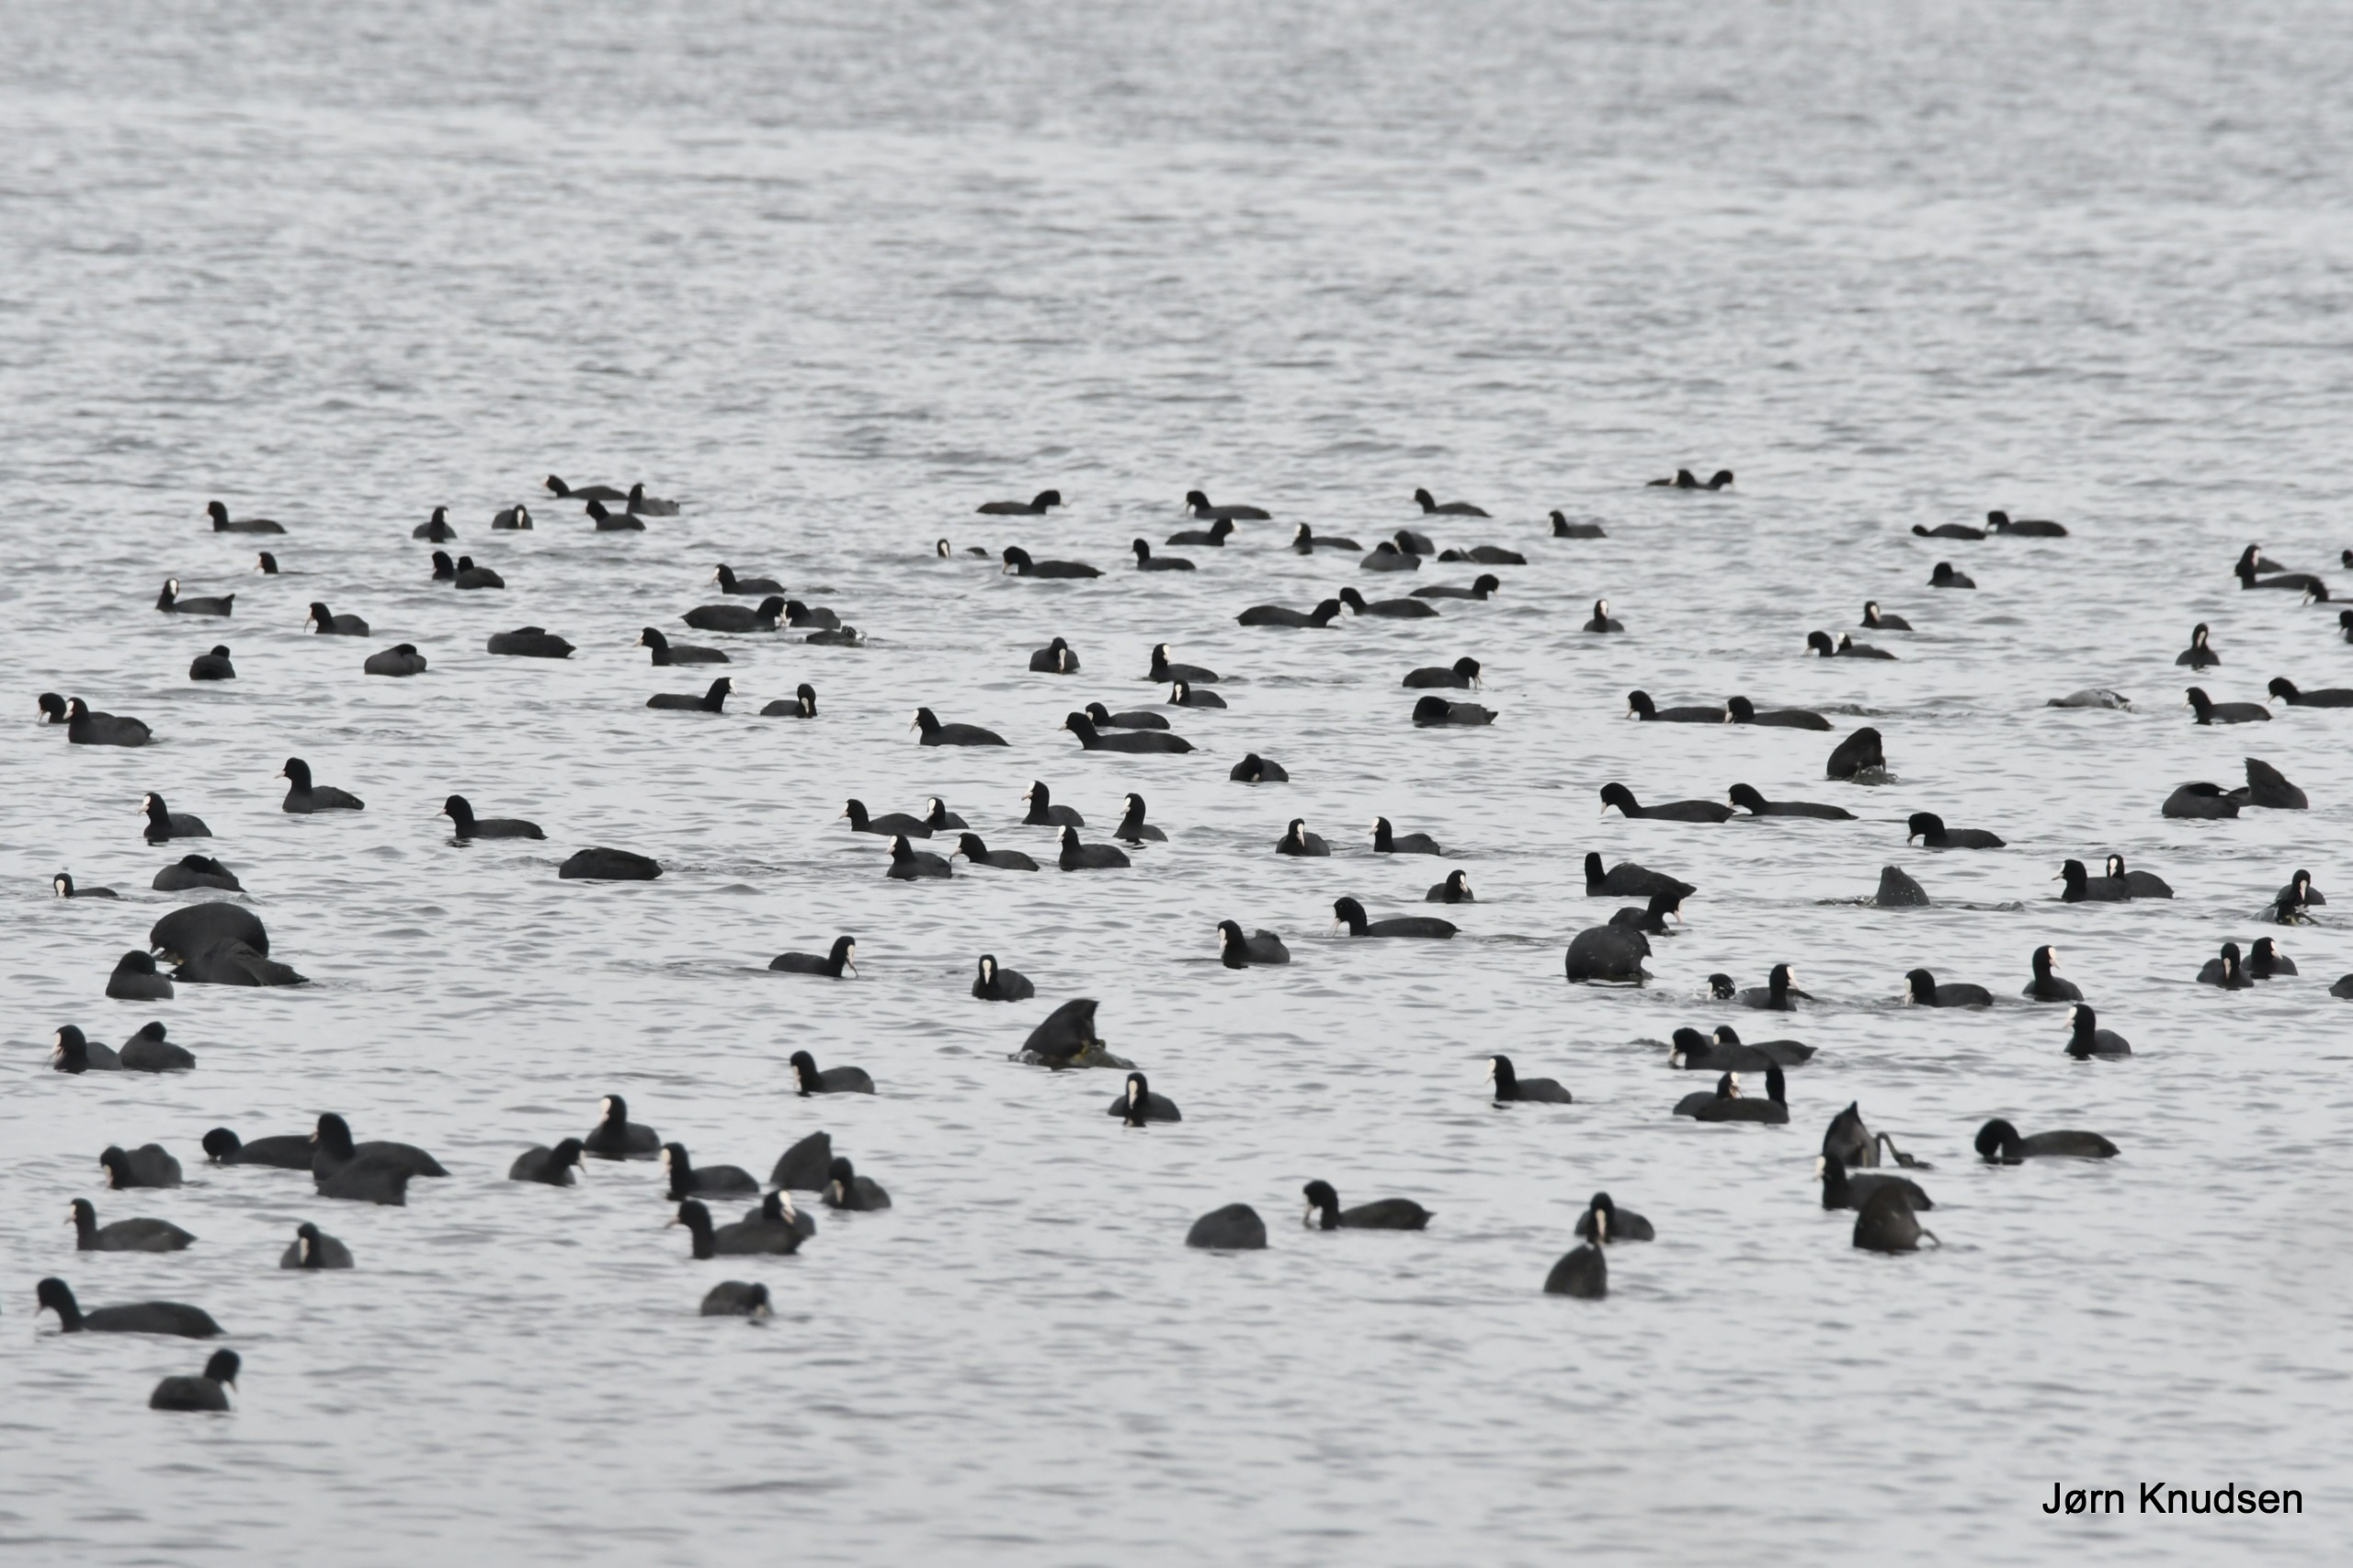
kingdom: Animalia
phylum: Chordata
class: Aves
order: Gruiformes
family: Rallidae
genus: Fulica
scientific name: Fulica atra
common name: Blishøne
